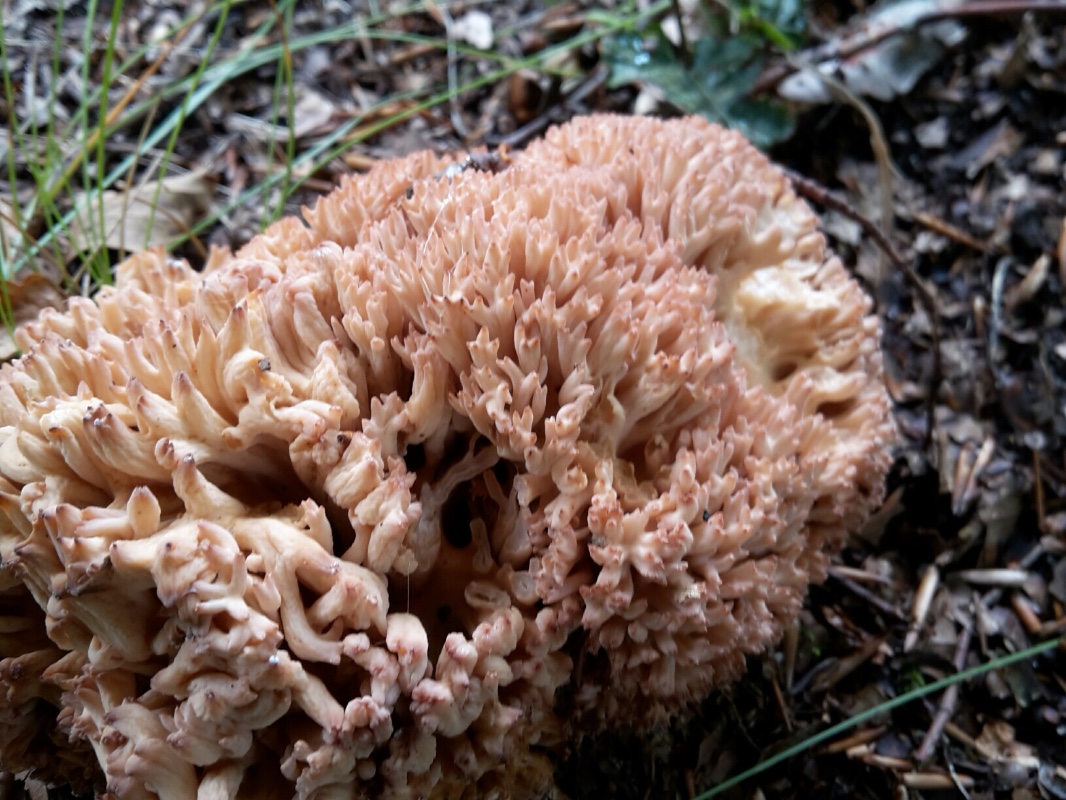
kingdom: Fungi
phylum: Basidiomycota
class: Agaricomycetes
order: Gomphales
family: Gomphaceae
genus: Ramaria
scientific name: Ramaria botrytis
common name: drue-koralsvamp
